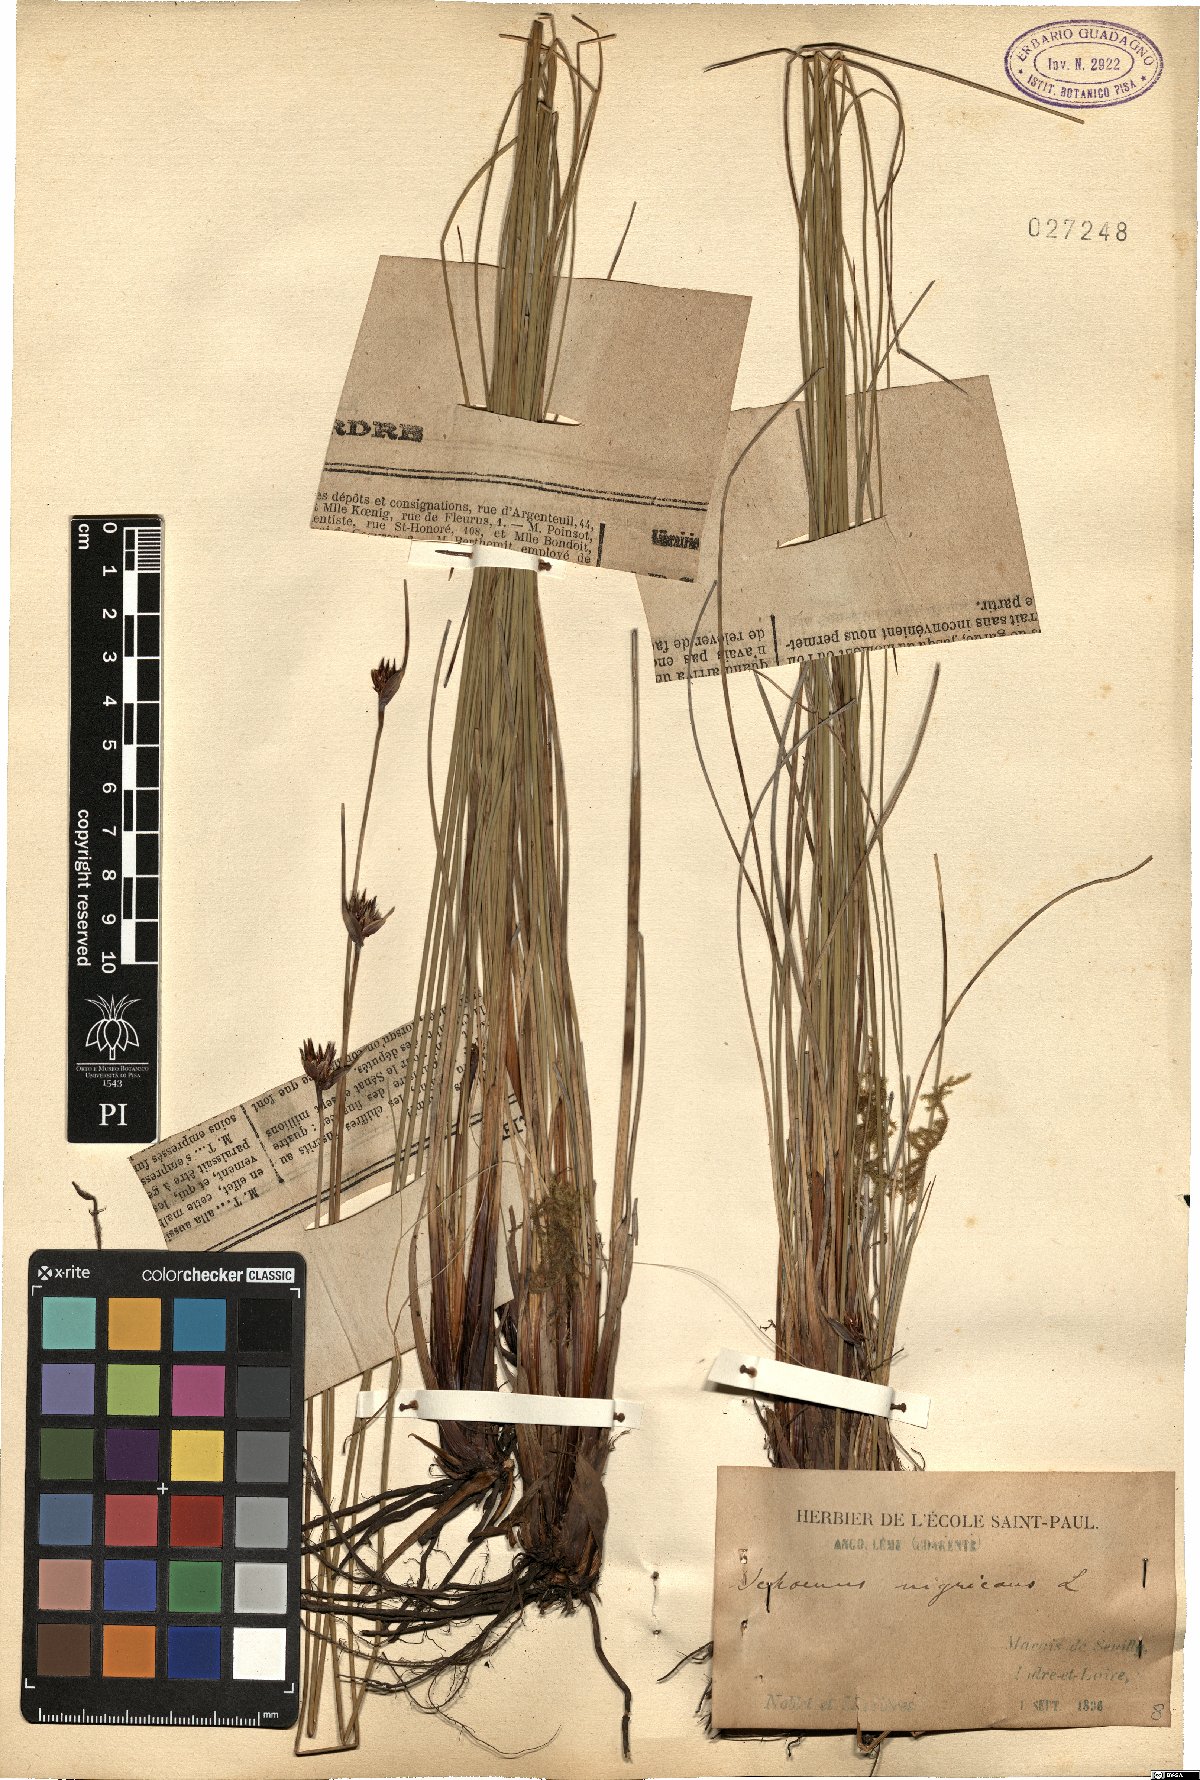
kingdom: Plantae
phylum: Tracheophyta
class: Liliopsida
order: Poales
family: Cyperaceae
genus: Schoenus
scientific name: Schoenus nigricans
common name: Black bog-rush
